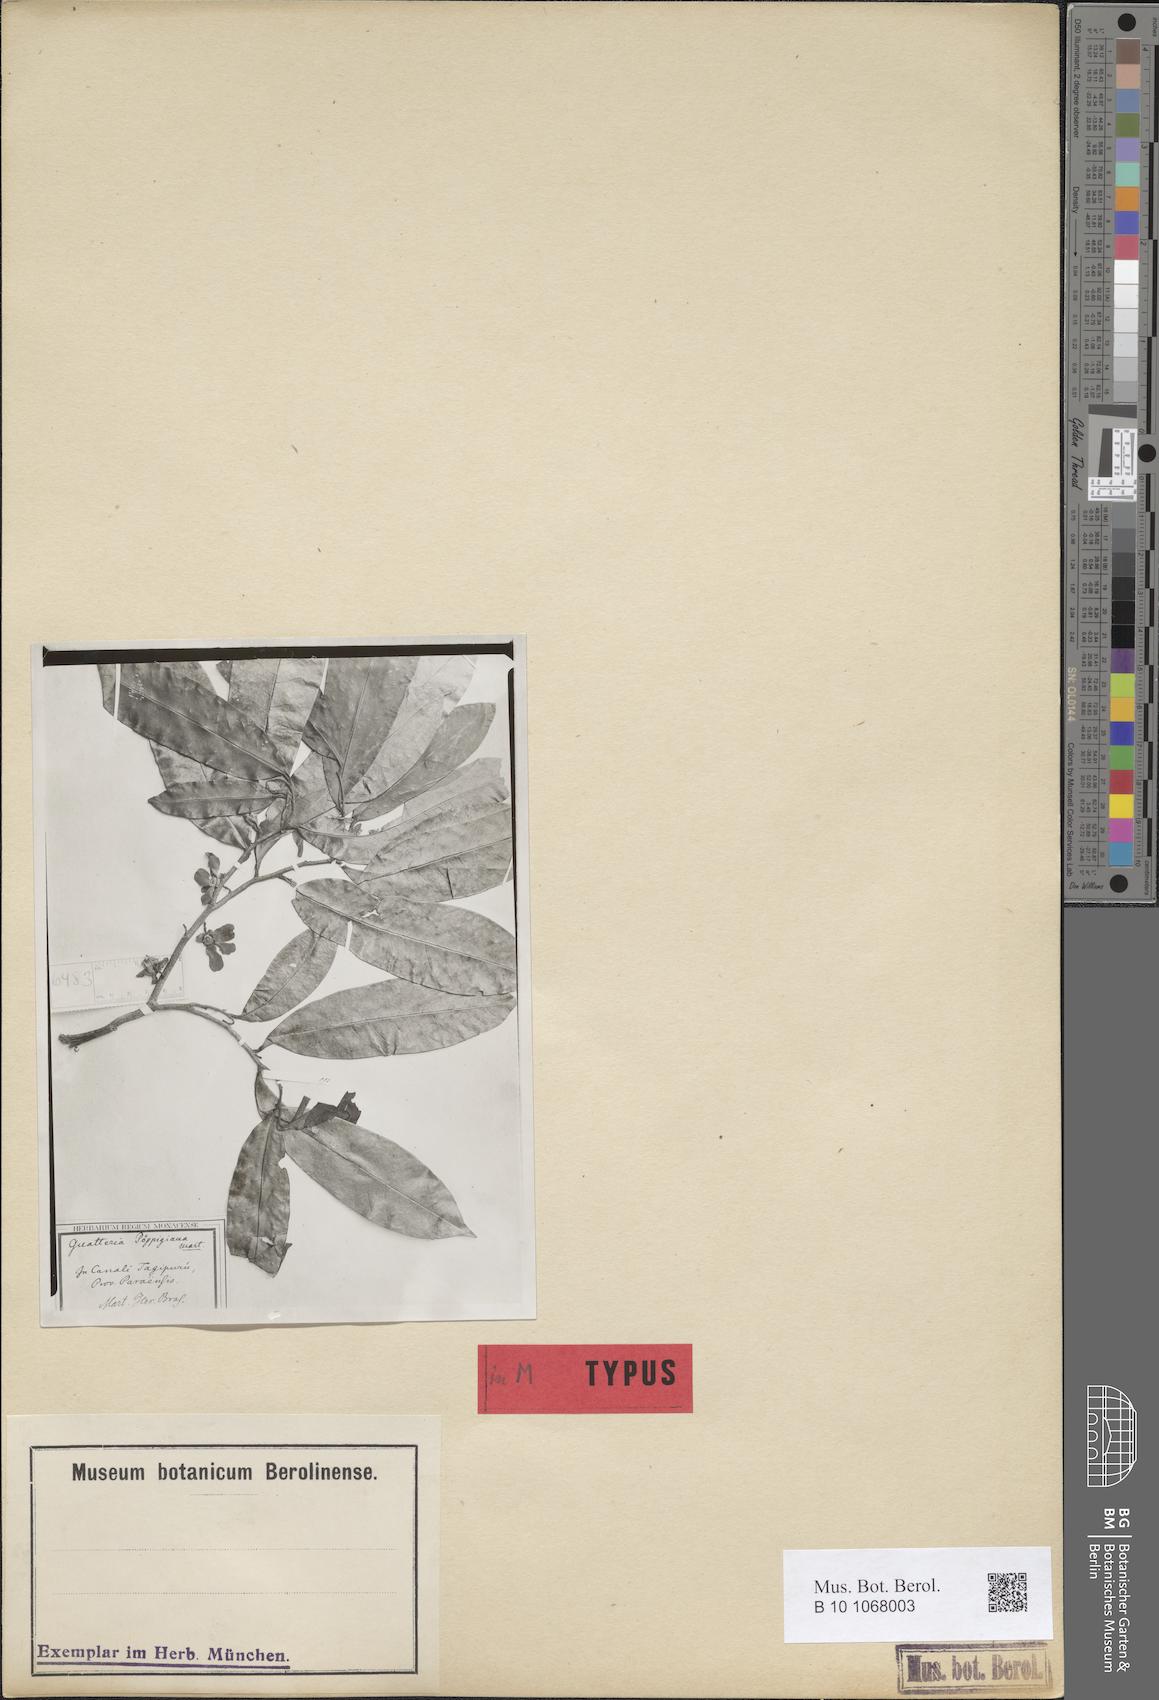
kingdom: Plantae
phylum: Tracheophyta
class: Magnoliopsida
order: Magnoliales
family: Annonaceae
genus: Guatteria
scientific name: Guatteria poeppigiana
